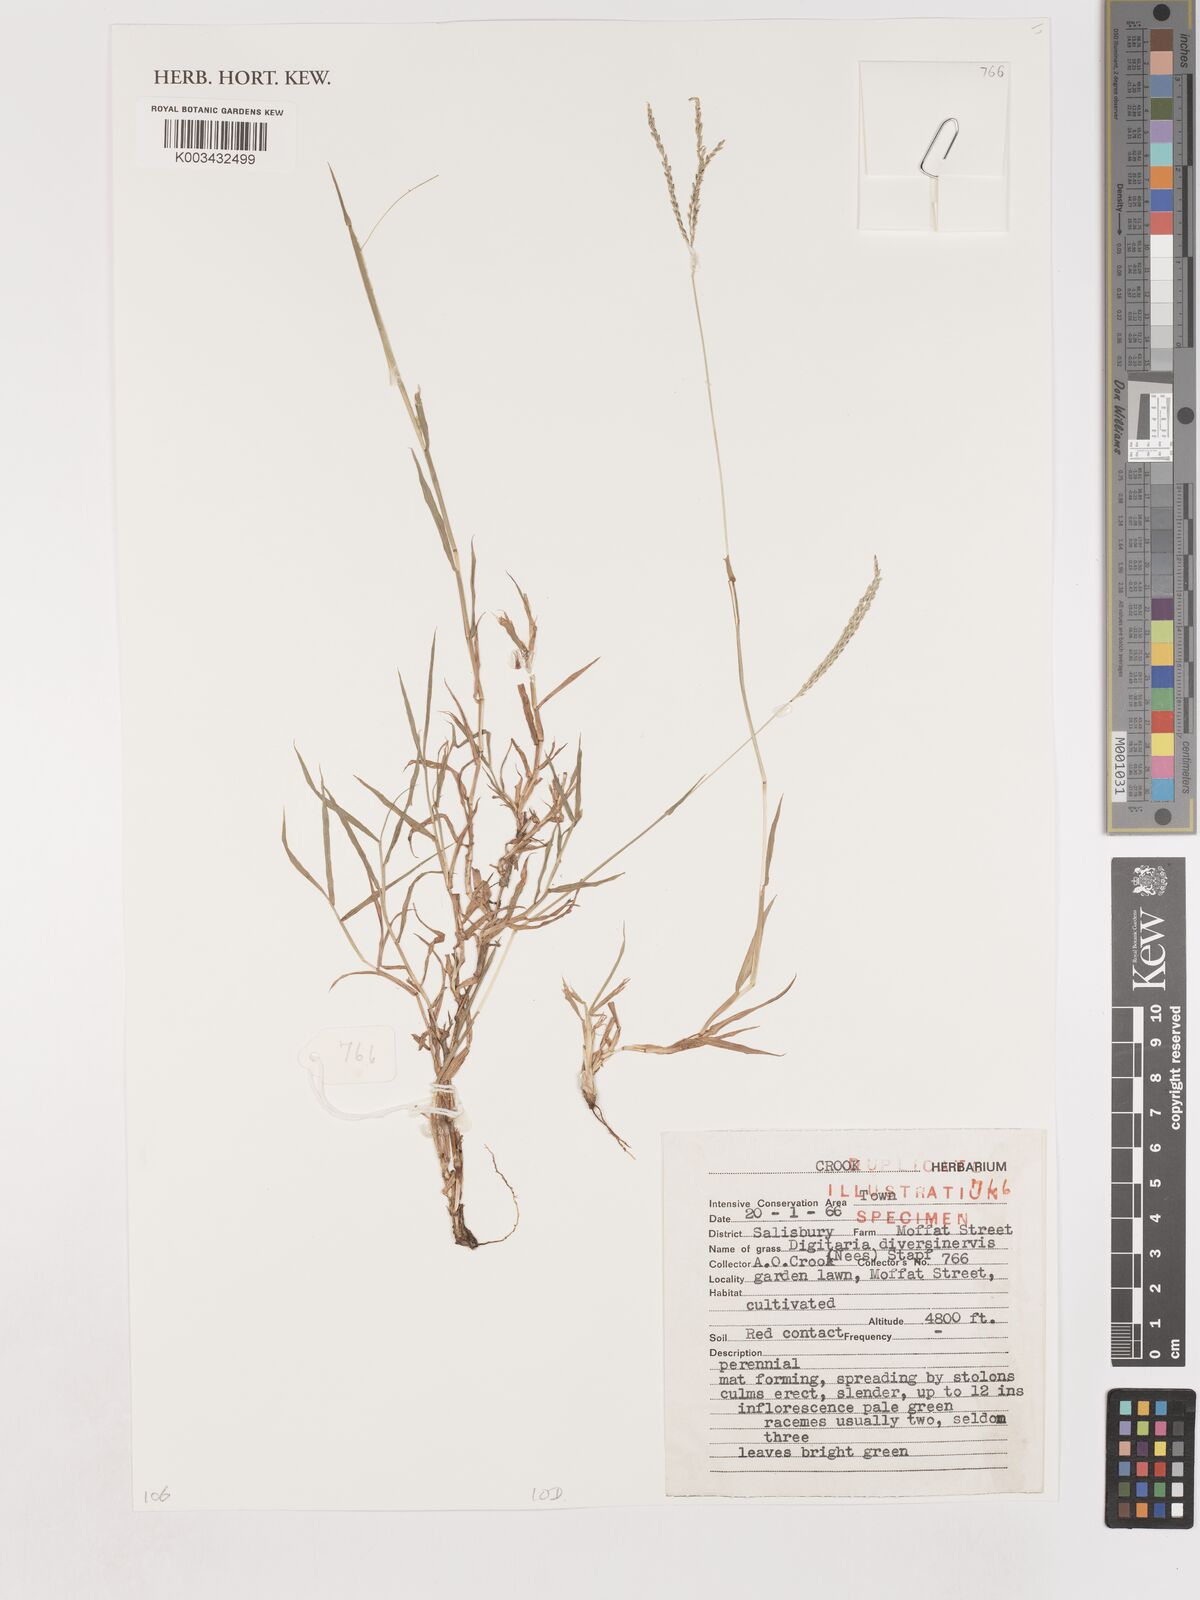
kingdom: Plantae
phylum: Tracheophyta
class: Liliopsida
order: Poales
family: Poaceae
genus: Digitaria
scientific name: Digitaria diversinervis
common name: Richmond finger grass
